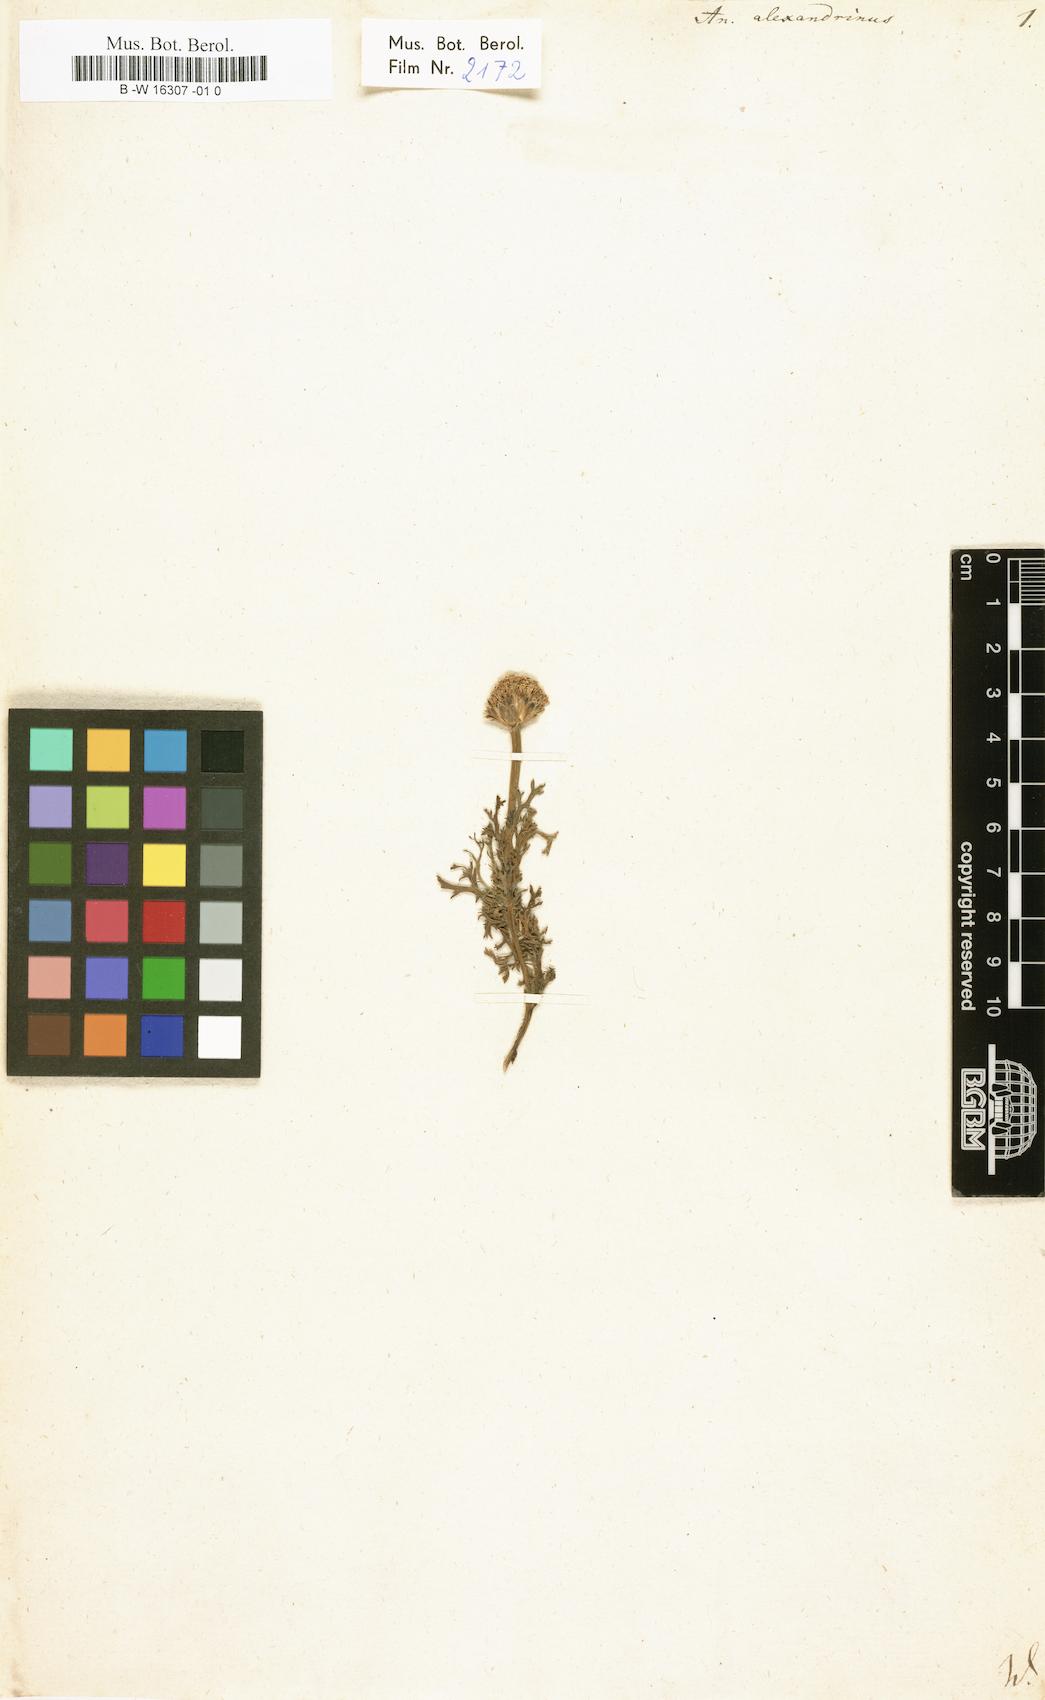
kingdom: Plantae
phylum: Tracheophyta
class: Magnoliopsida
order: Asterales
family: Asteraceae
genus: Anacyclus
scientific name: Anacyclus monanthos
